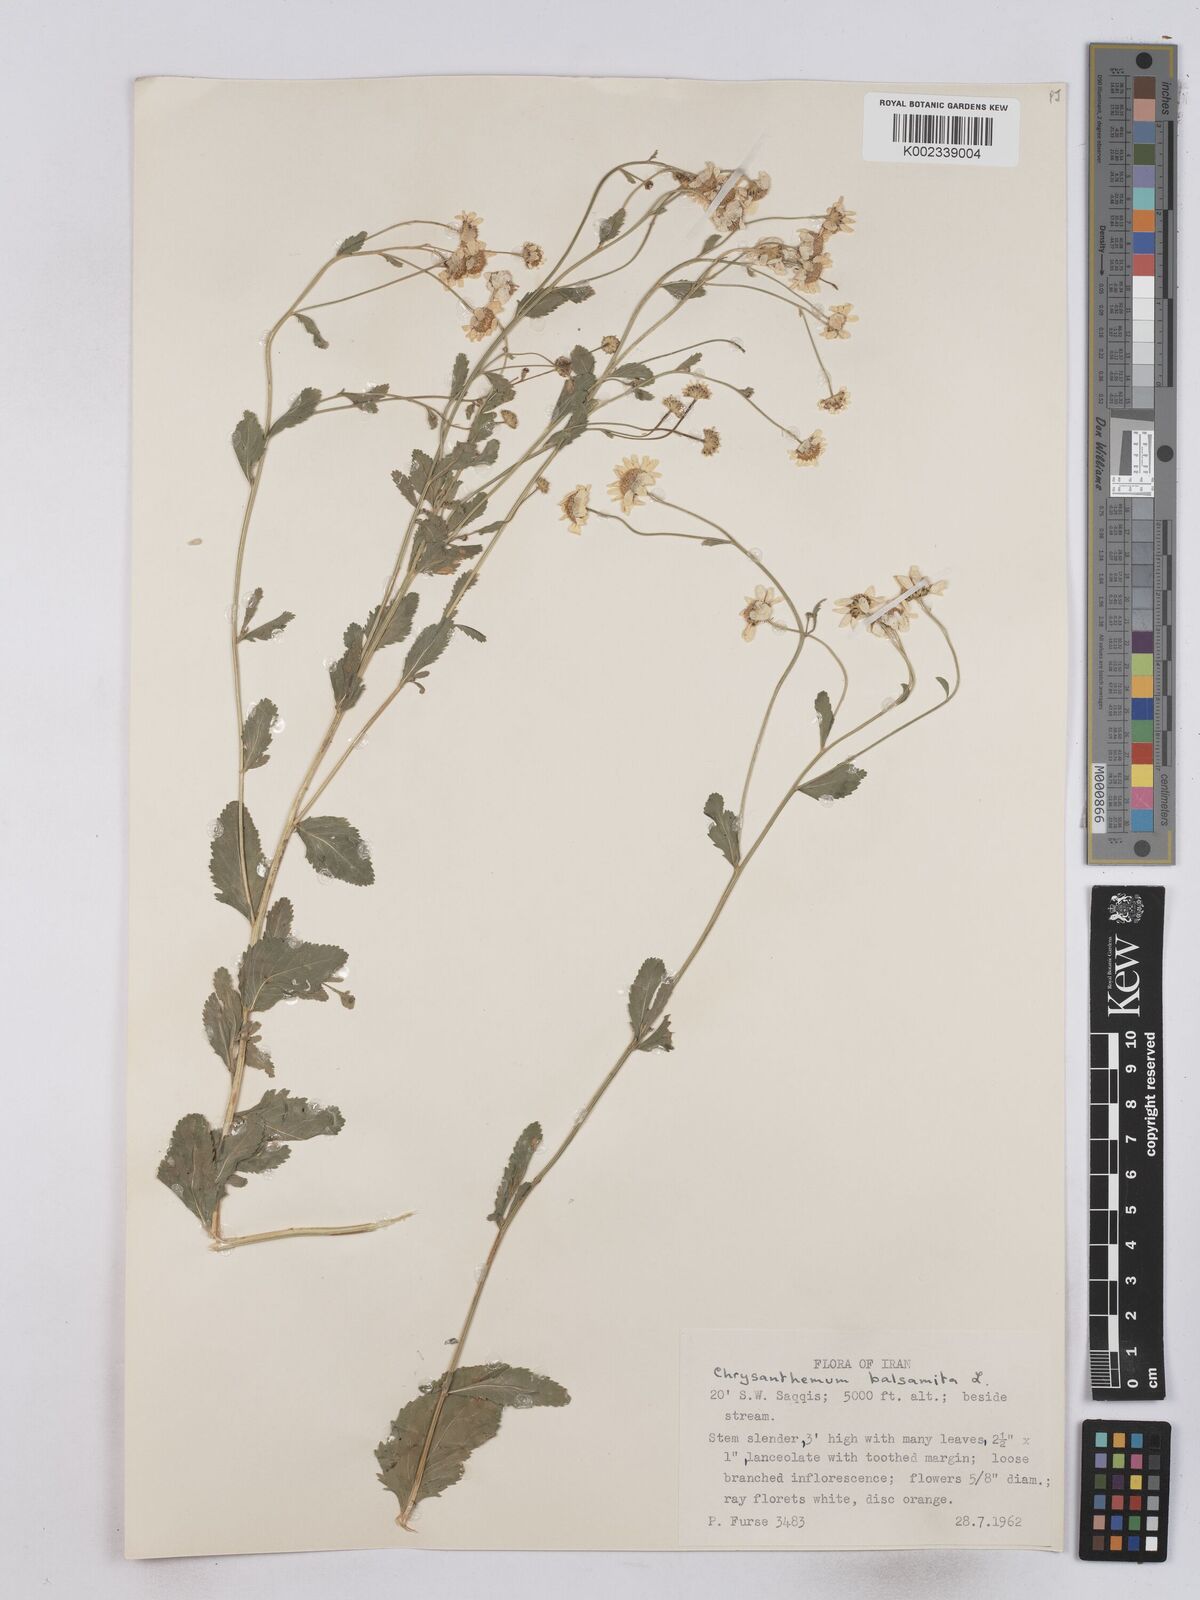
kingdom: Plantae
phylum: Tracheophyta
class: Magnoliopsida
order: Asterales
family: Asteraceae
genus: Tanacetum
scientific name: Tanacetum balsamita
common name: Costmary
